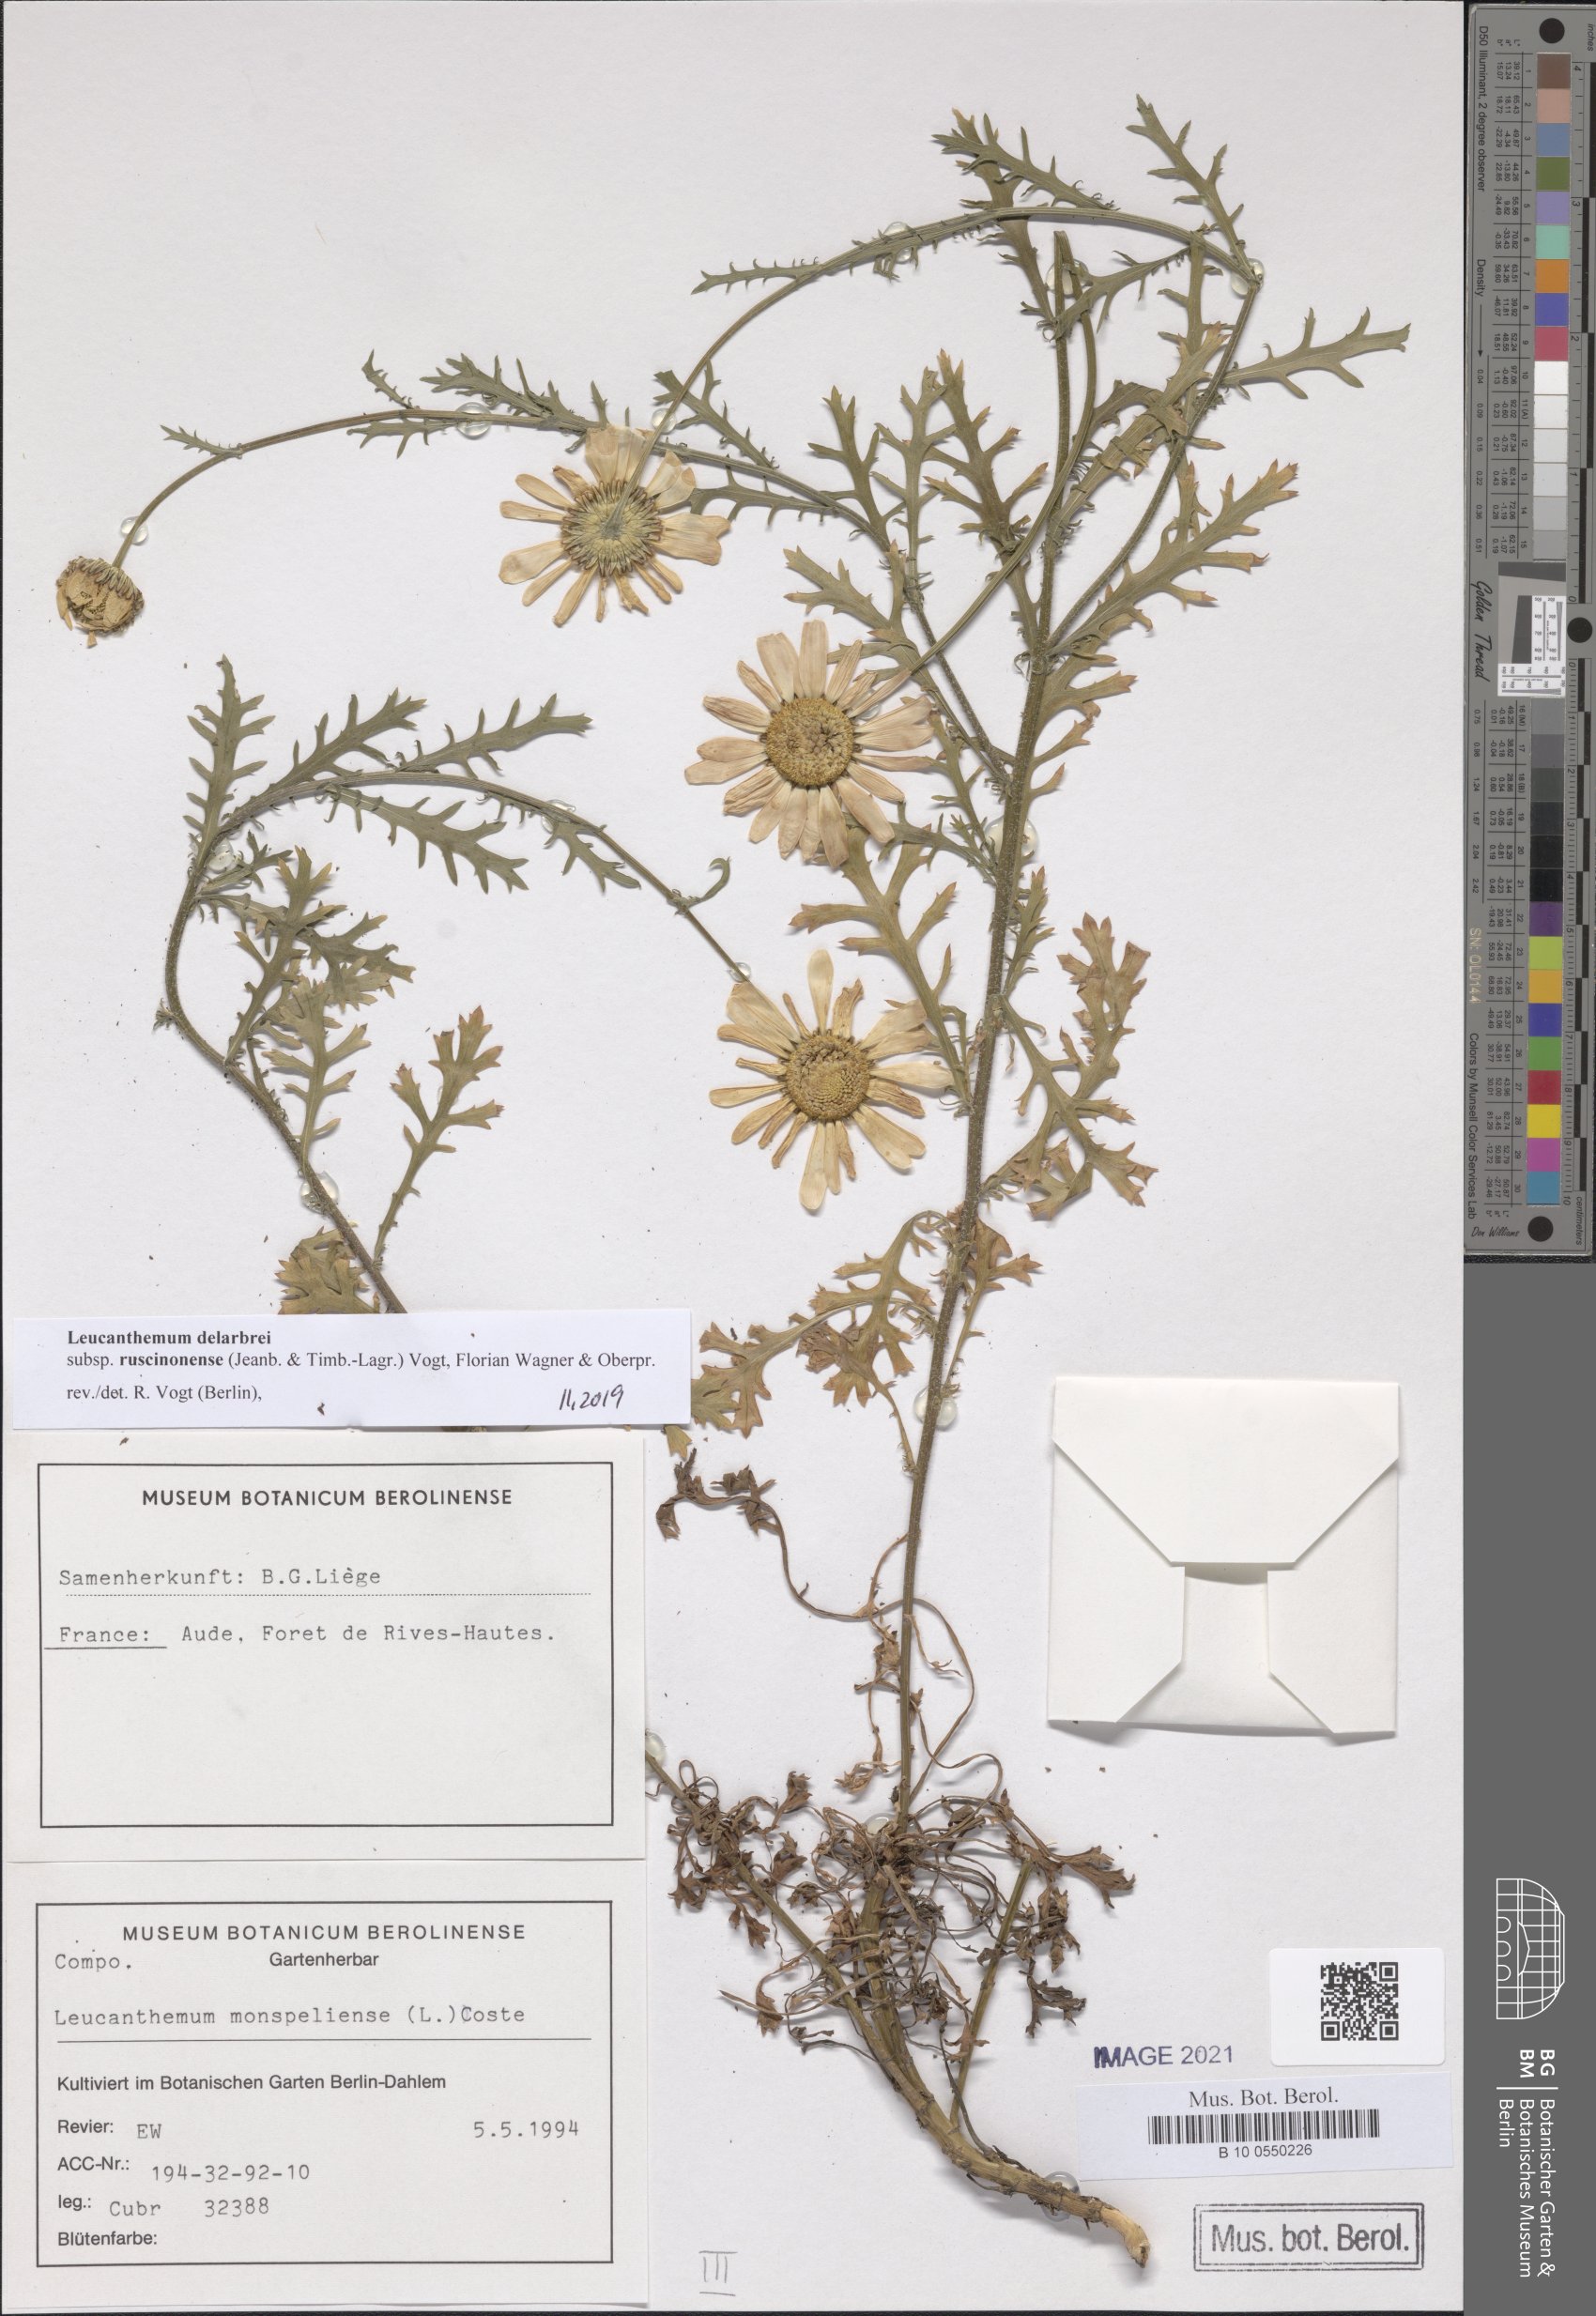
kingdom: Plantae
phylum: Tracheophyta
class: Magnoliopsida
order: Asterales
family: Asteraceae
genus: Leucanthemum
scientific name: Leucanthemum delarbrei
